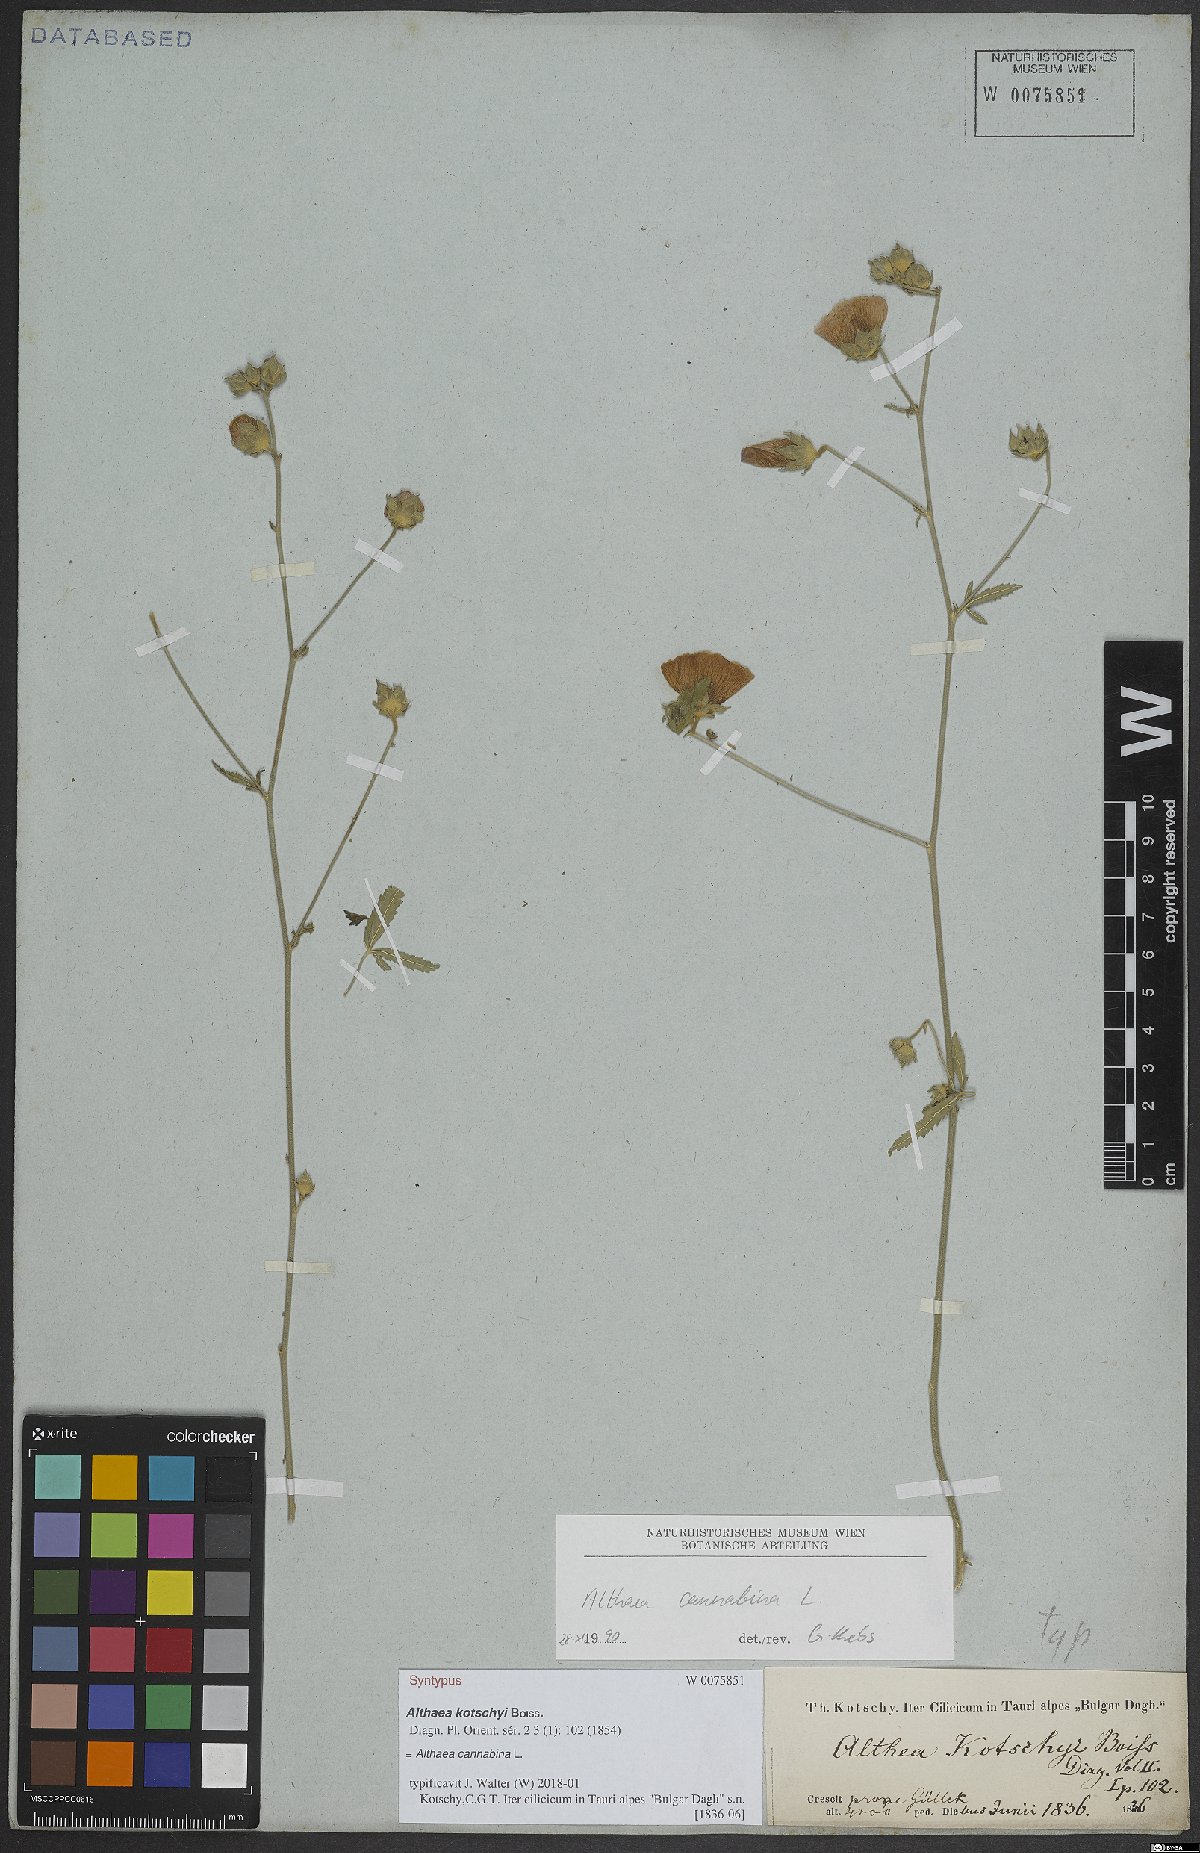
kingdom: Plantae
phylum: Tracheophyta
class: Magnoliopsida
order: Malvales
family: Malvaceae
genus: Althaea
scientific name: Althaea cannabina
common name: Palm-leaf marshmallow
